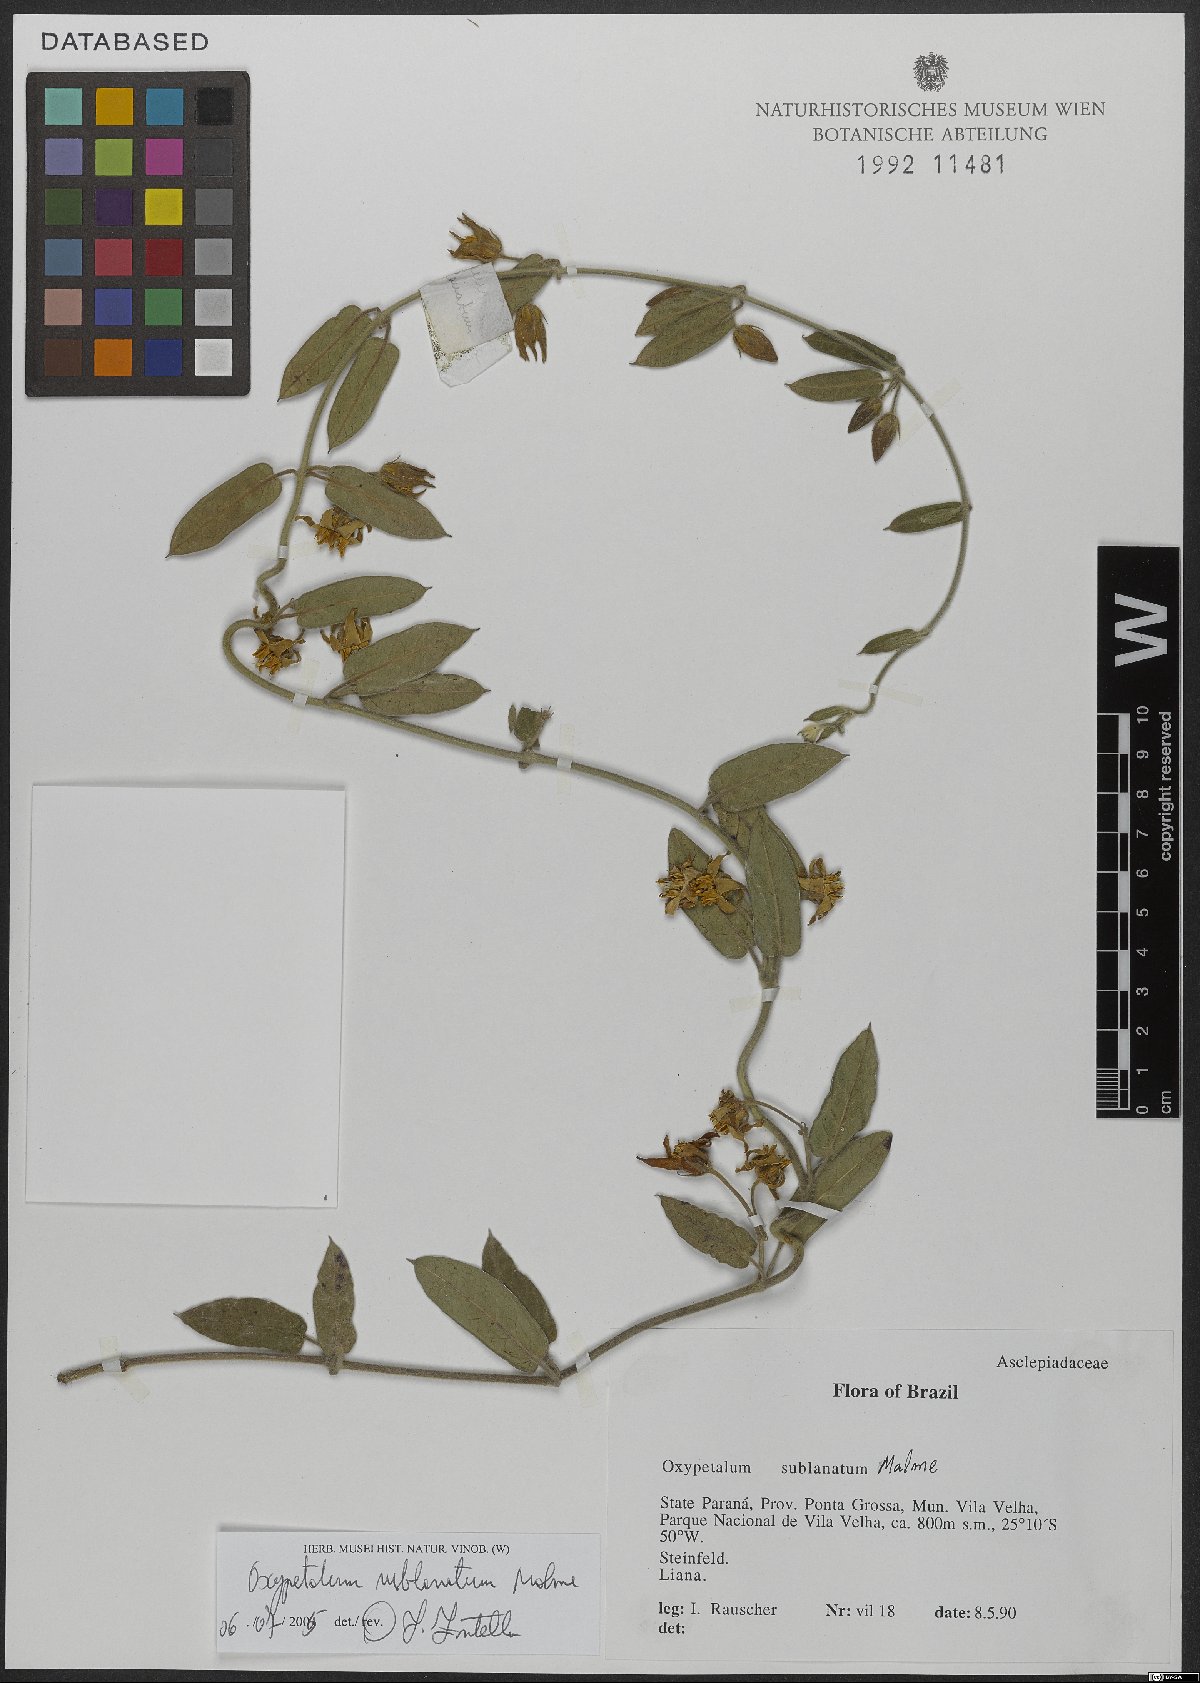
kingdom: Plantae
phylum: Tracheophyta
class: Magnoliopsida
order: Gentianales
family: Apocynaceae
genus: Oxypetalum
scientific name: Oxypetalum sublanatum
